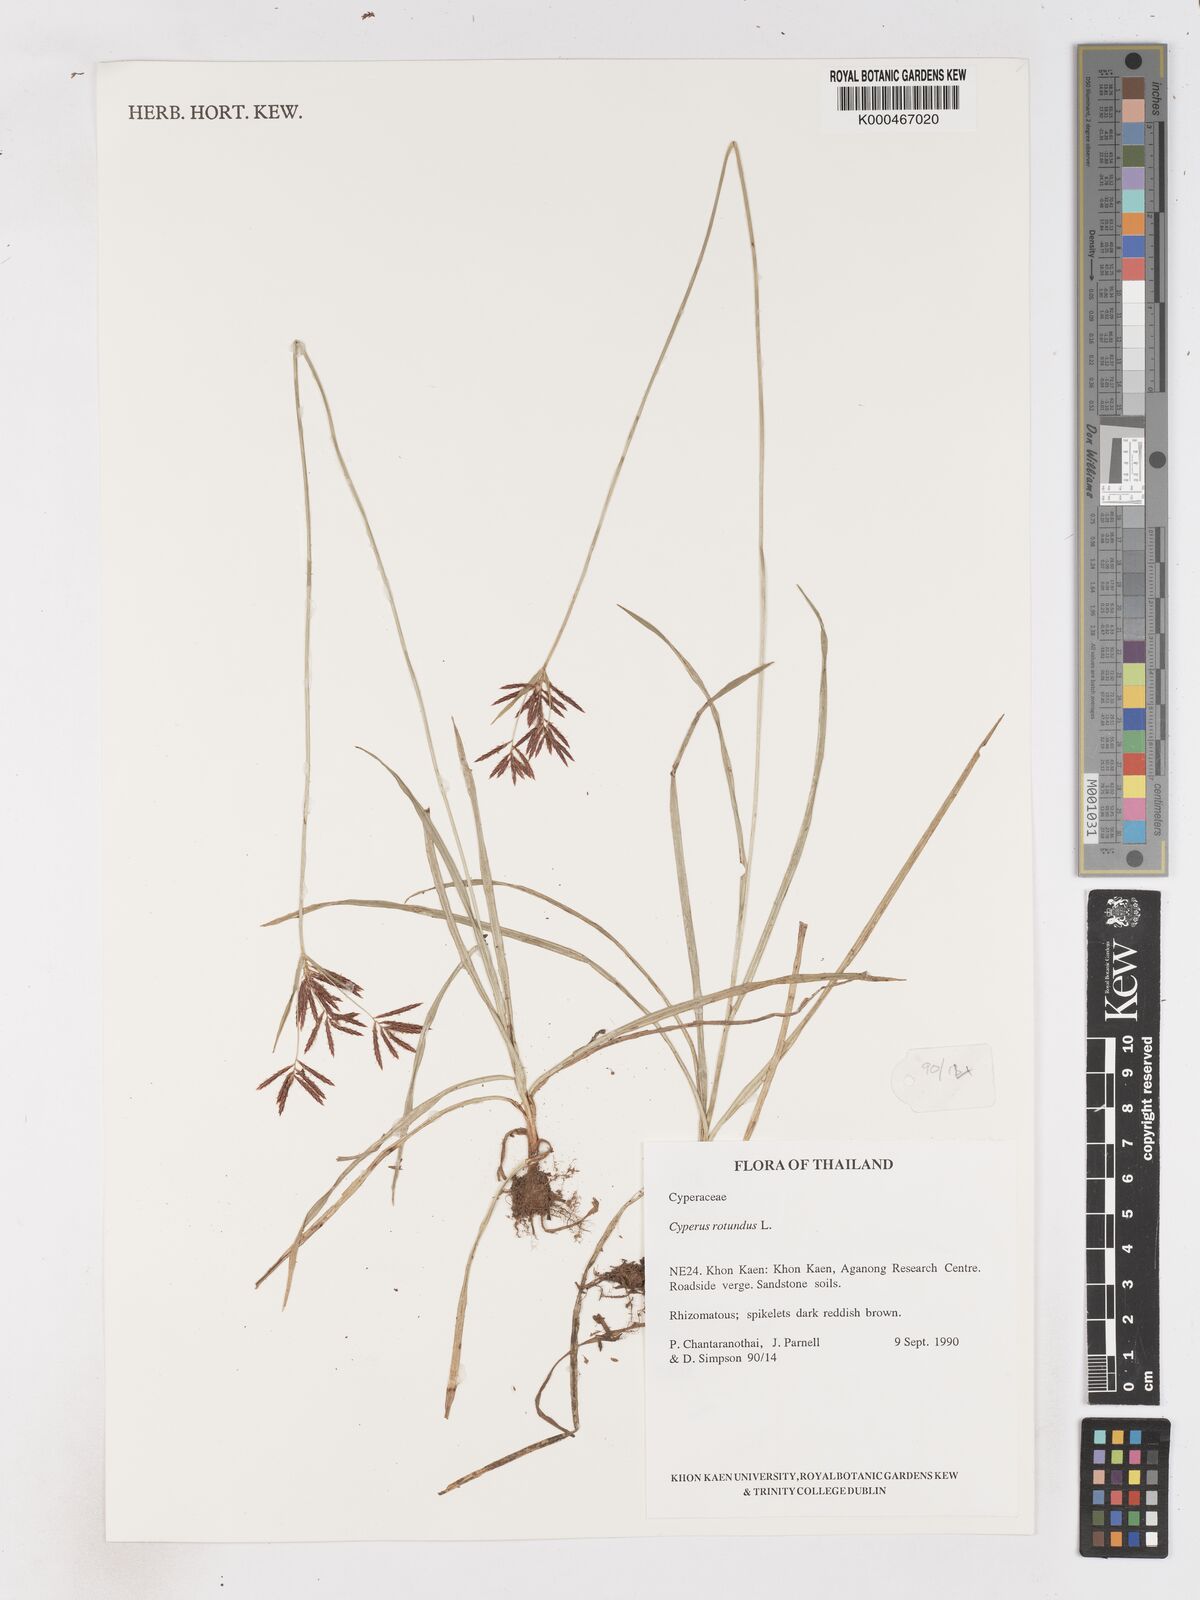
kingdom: Plantae
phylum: Tracheophyta
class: Liliopsida
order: Poales
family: Cyperaceae
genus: Cyperus
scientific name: Cyperus rotundus
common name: Nutgrass
